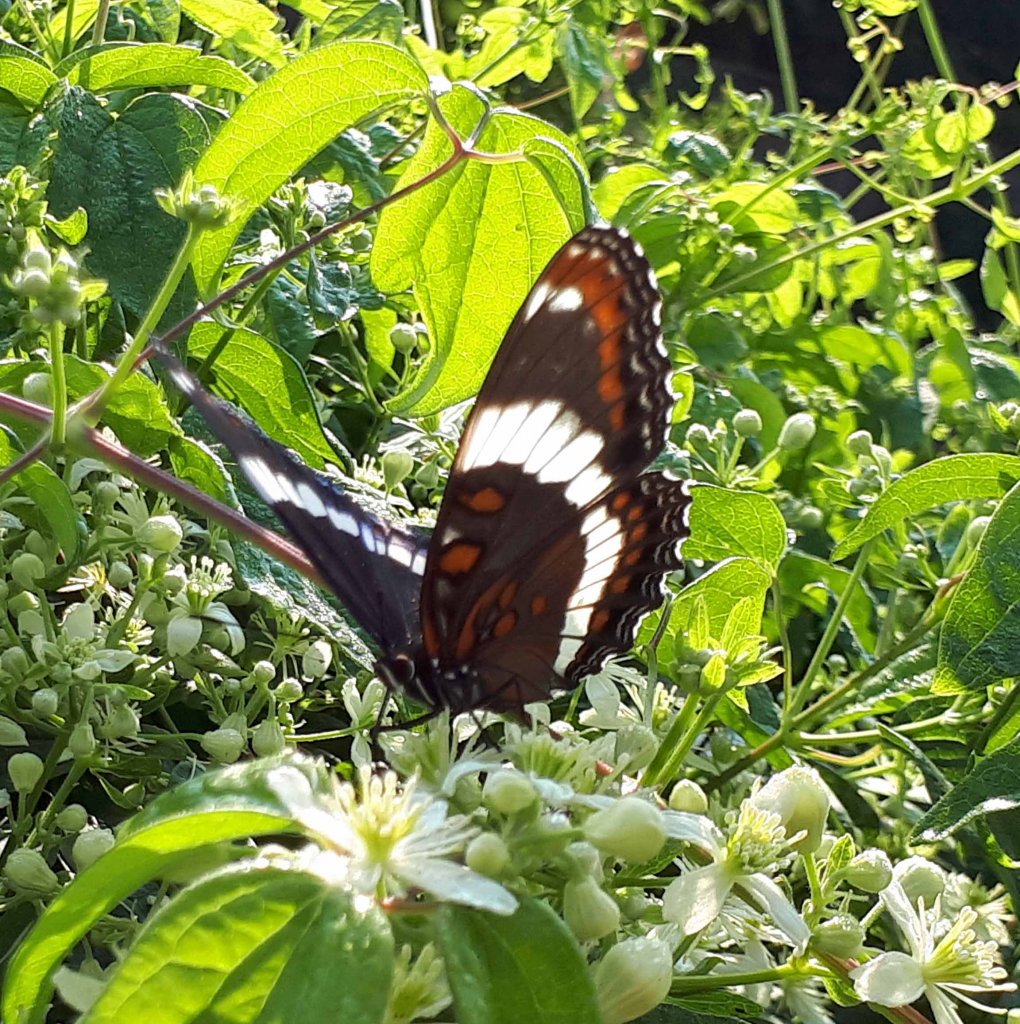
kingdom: Animalia
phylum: Arthropoda
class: Insecta
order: Lepidoptera
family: Nymphalidae
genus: Limenitis
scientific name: Limenitis arthemis
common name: Red-spotted Admiral
